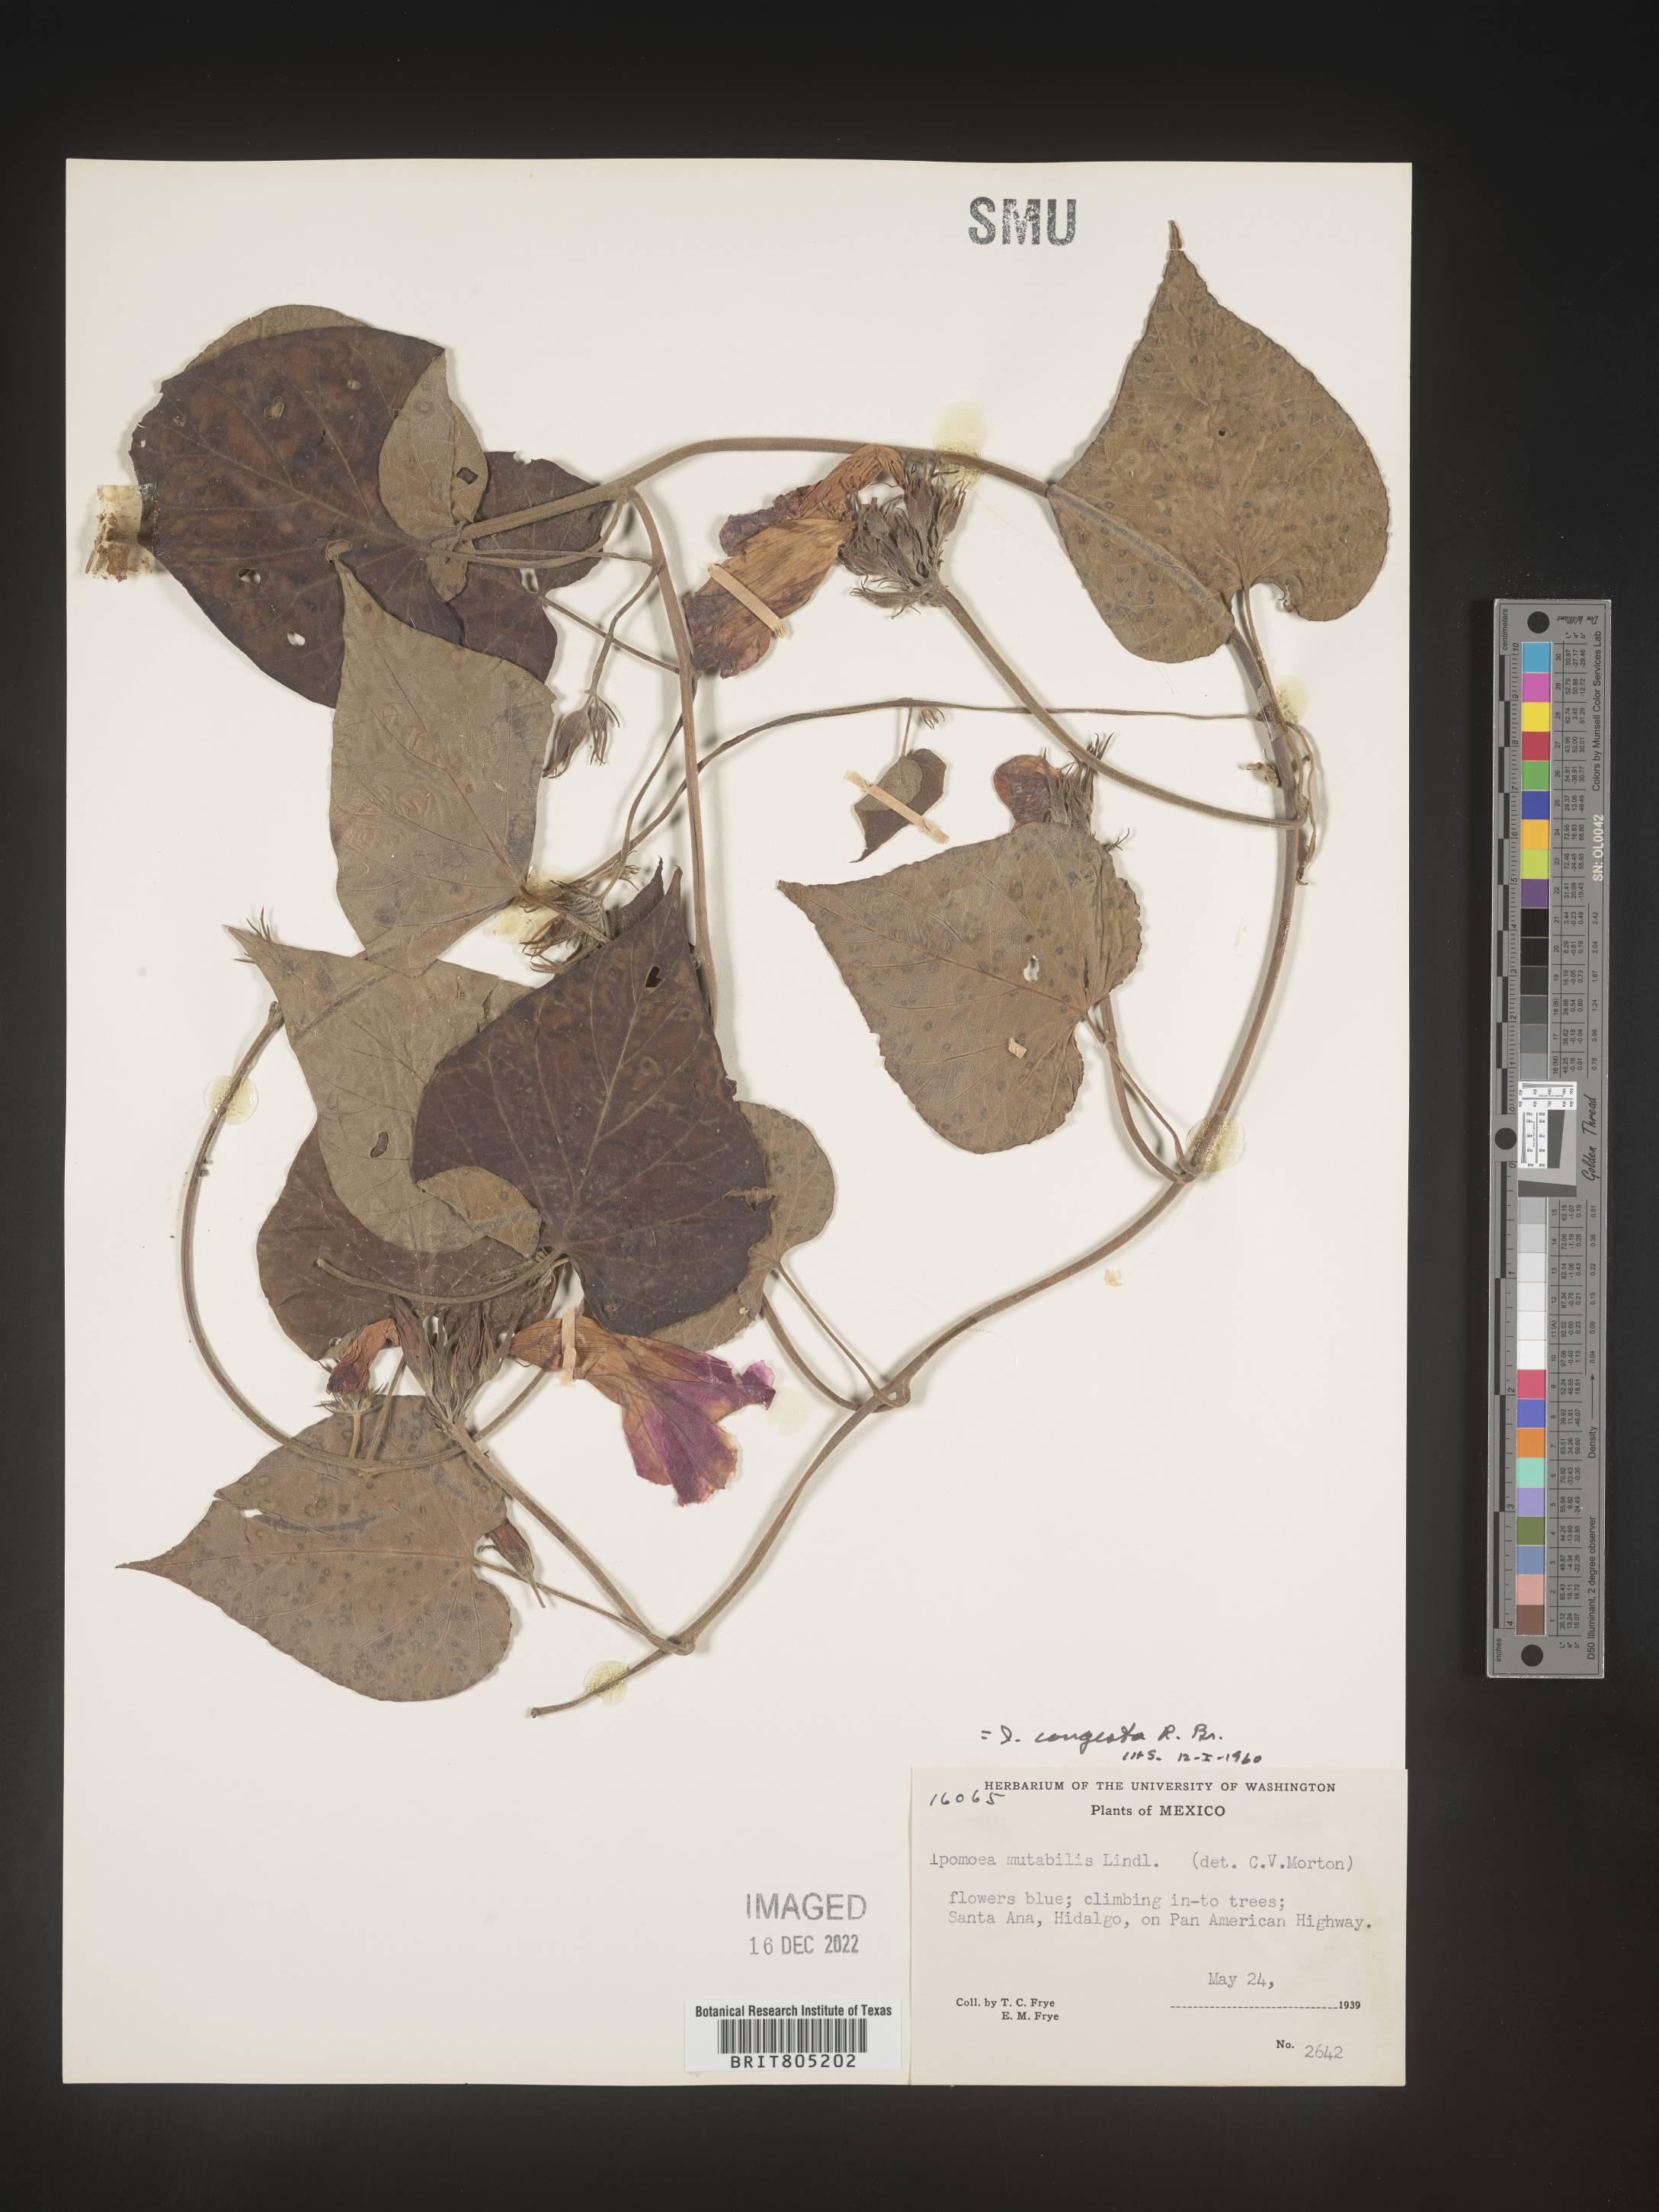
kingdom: Plantae
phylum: Tracheophyta
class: Magnoliopsida
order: Solanales
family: Convolvulaceae
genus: Ipomoea
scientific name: Ipomoea
